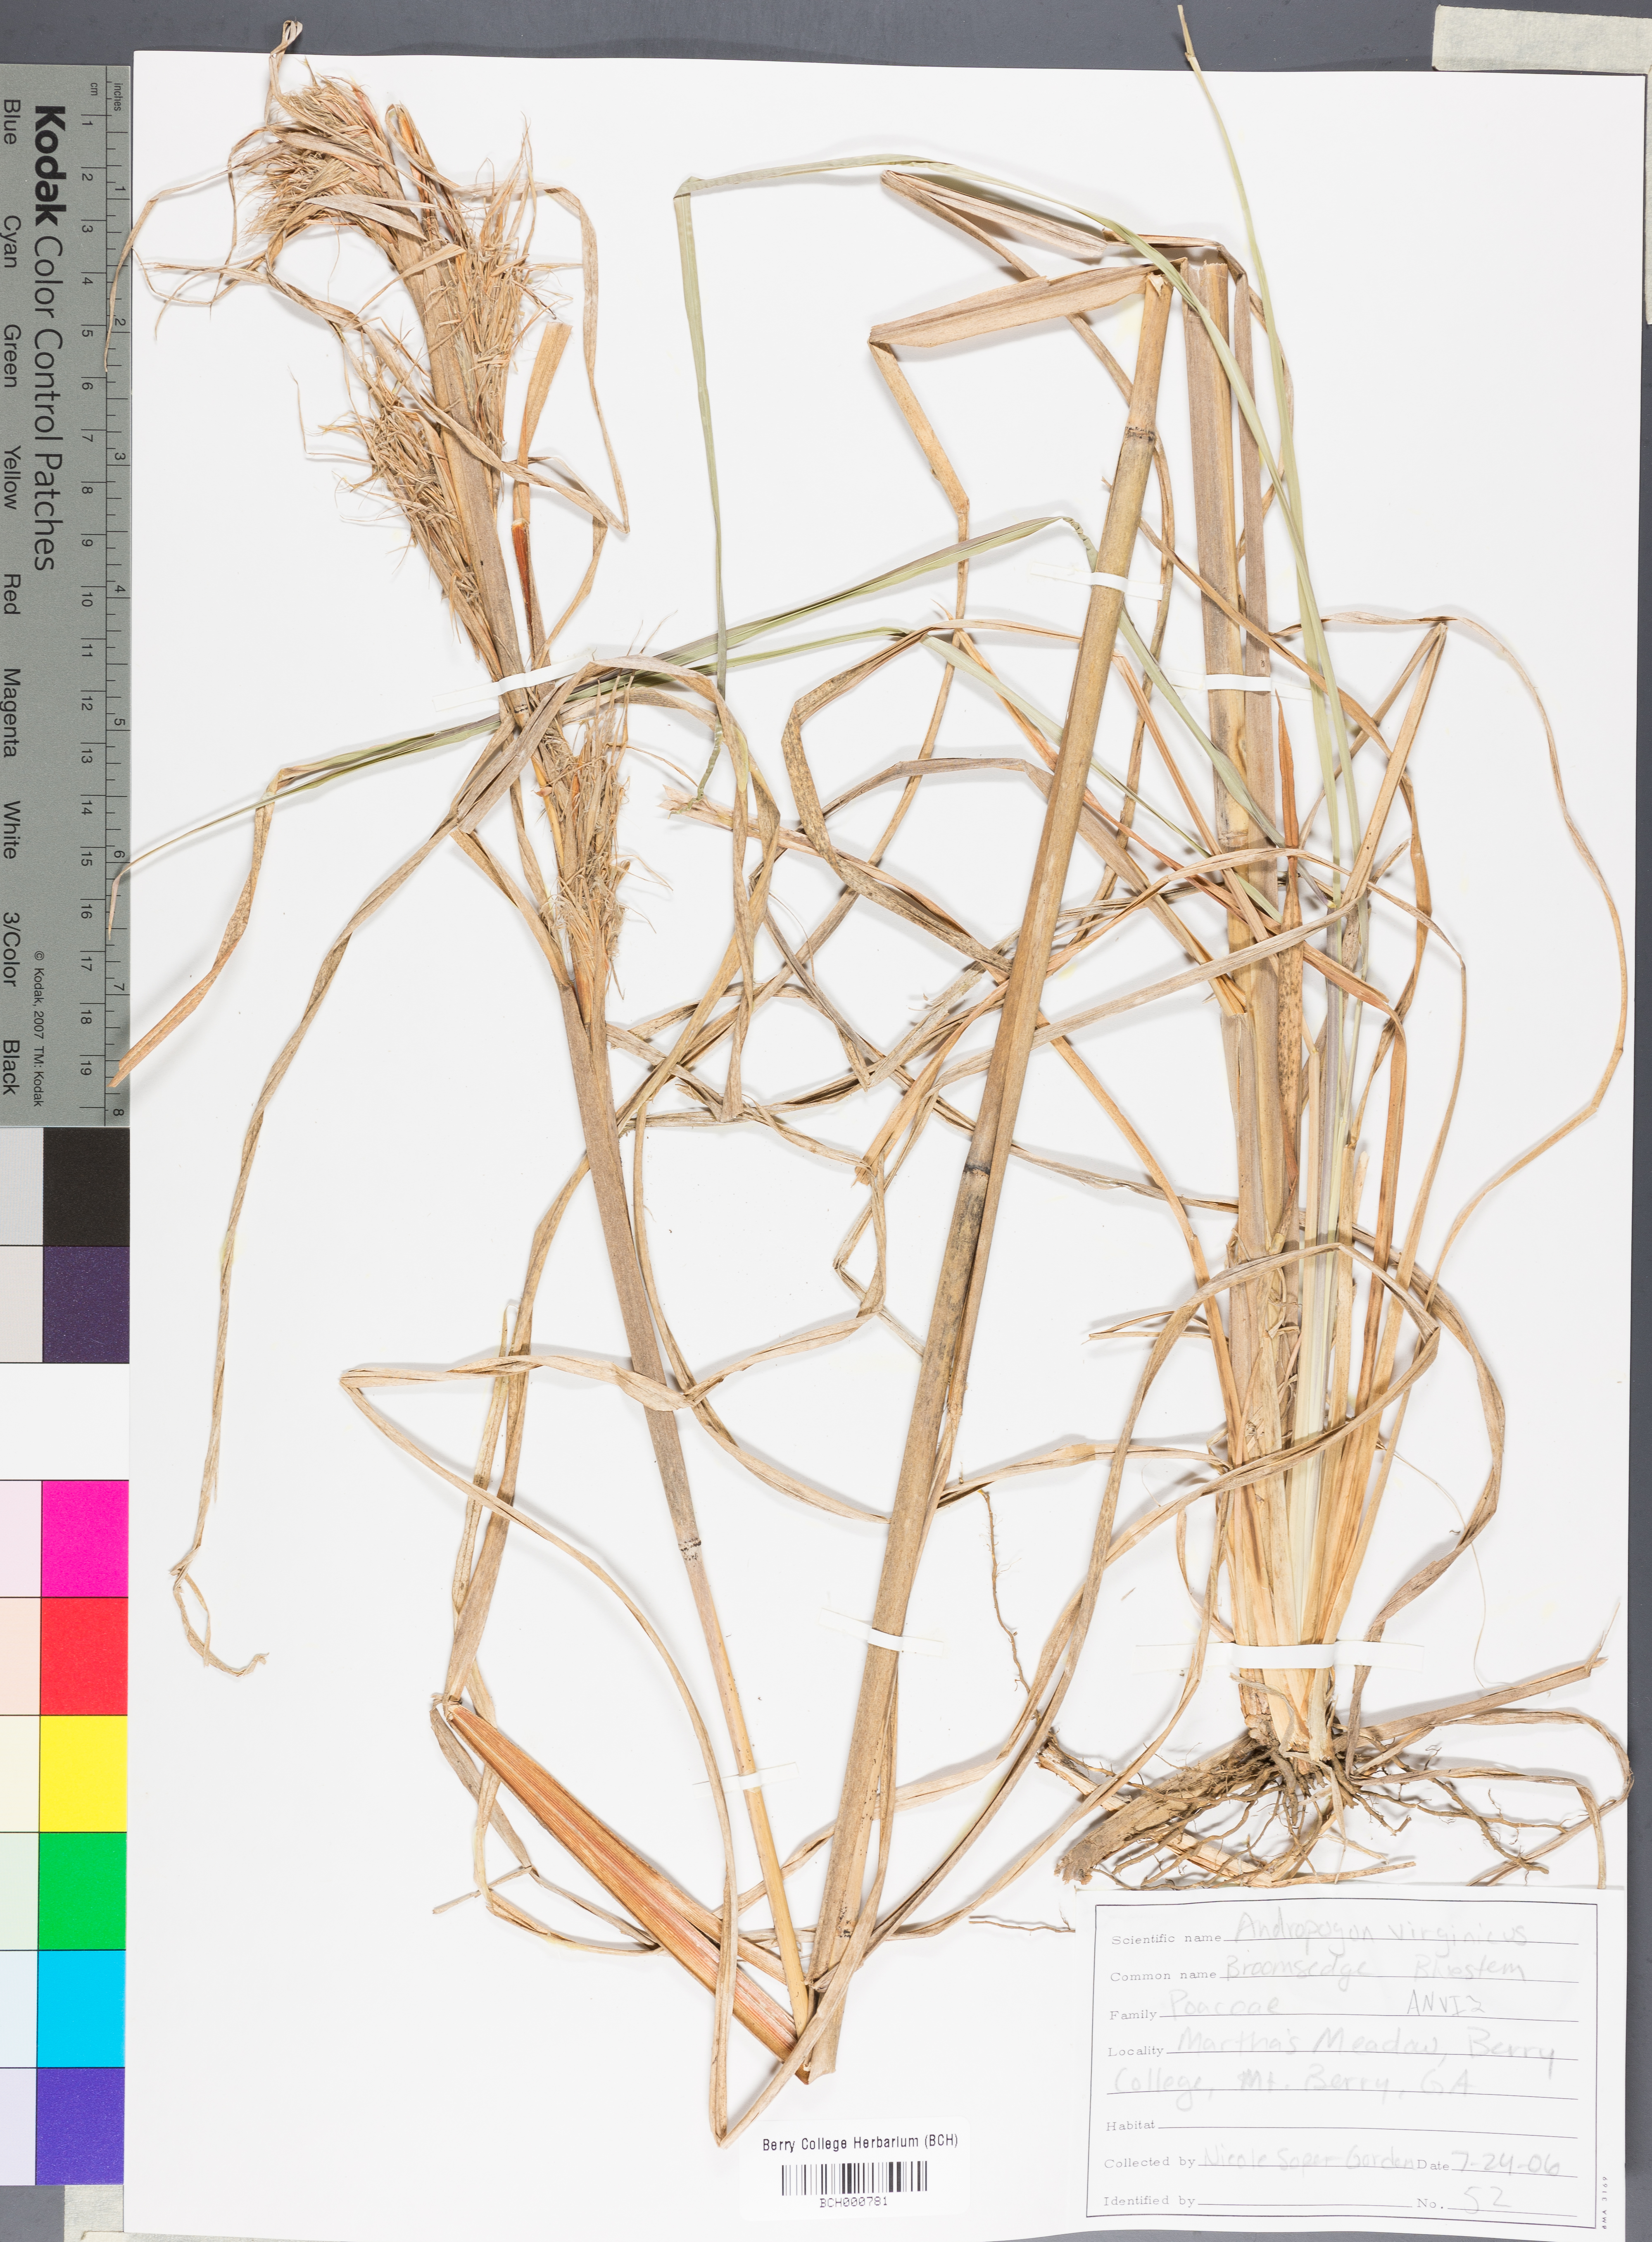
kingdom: Plantae
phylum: Tracheophyta
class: Liliopsida
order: Poales
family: Poaceae
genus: Andropogon
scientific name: Andropogon virginicus
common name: Broomsedge bluestem
